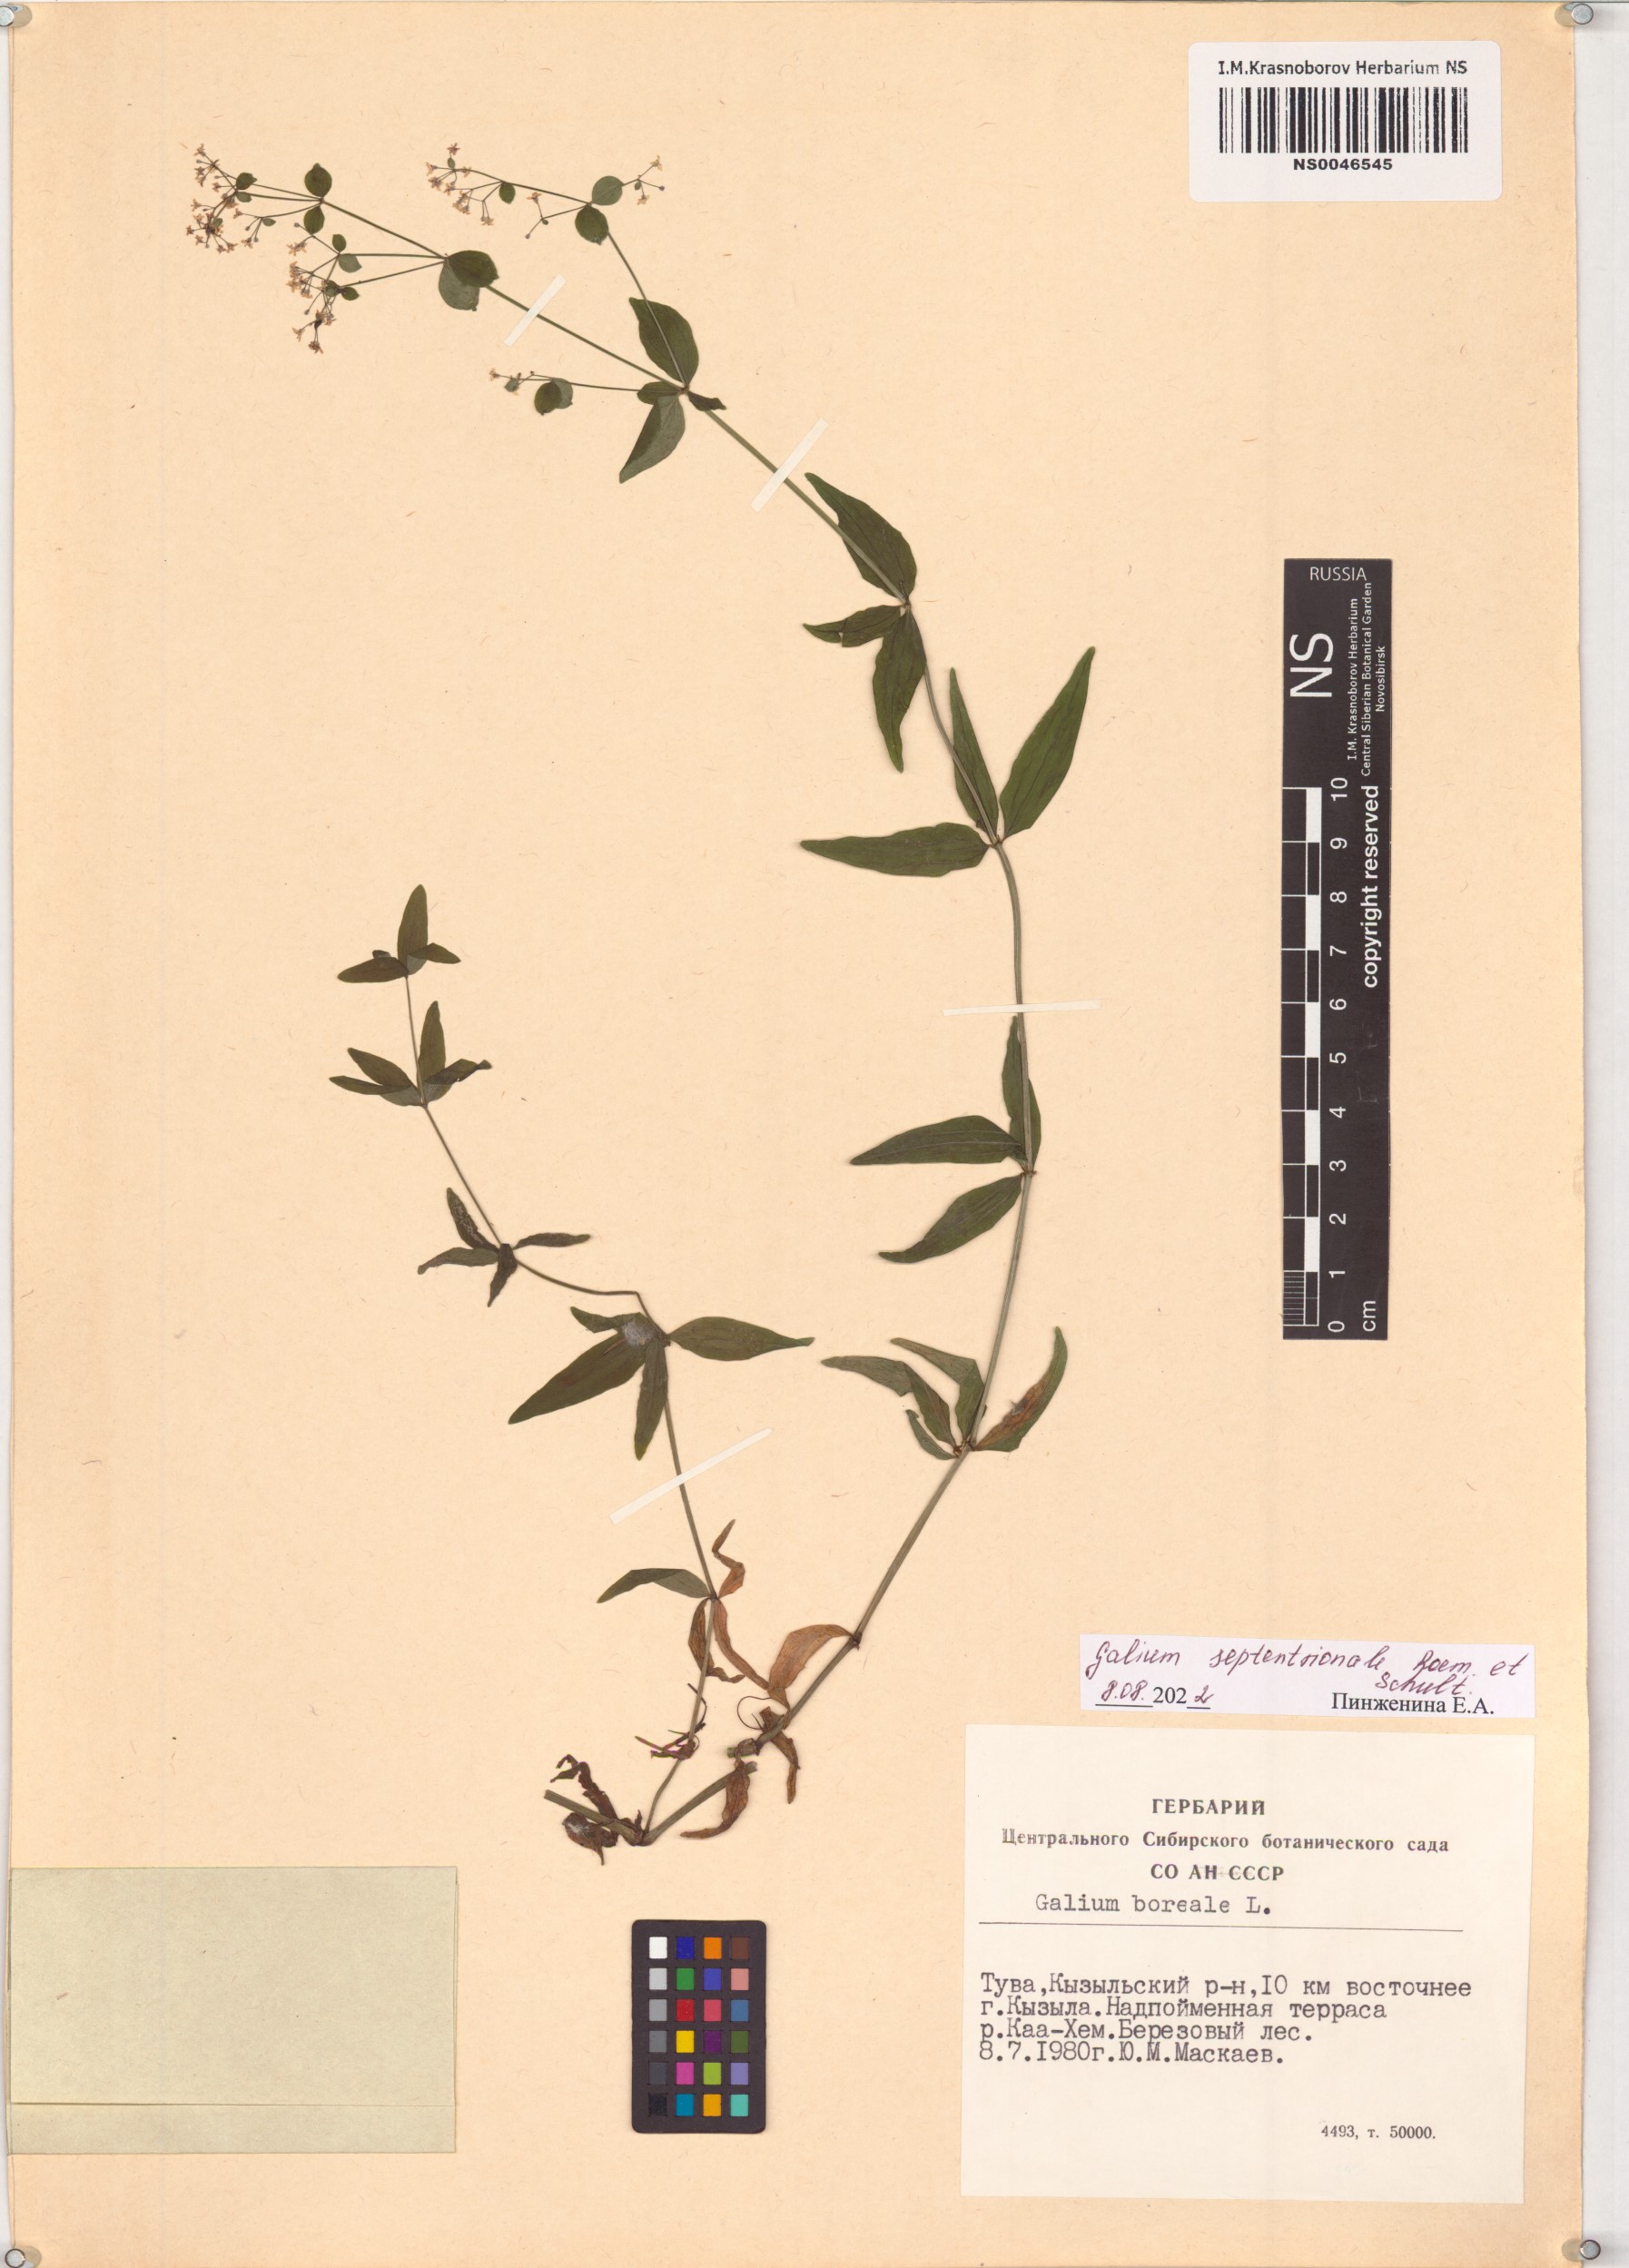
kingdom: Plantae
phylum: Tracheophyta
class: Magnoliopsida
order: Gentianales
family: Rubiaceae
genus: Galium
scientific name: Galium boreale
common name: Northern bedstraw
